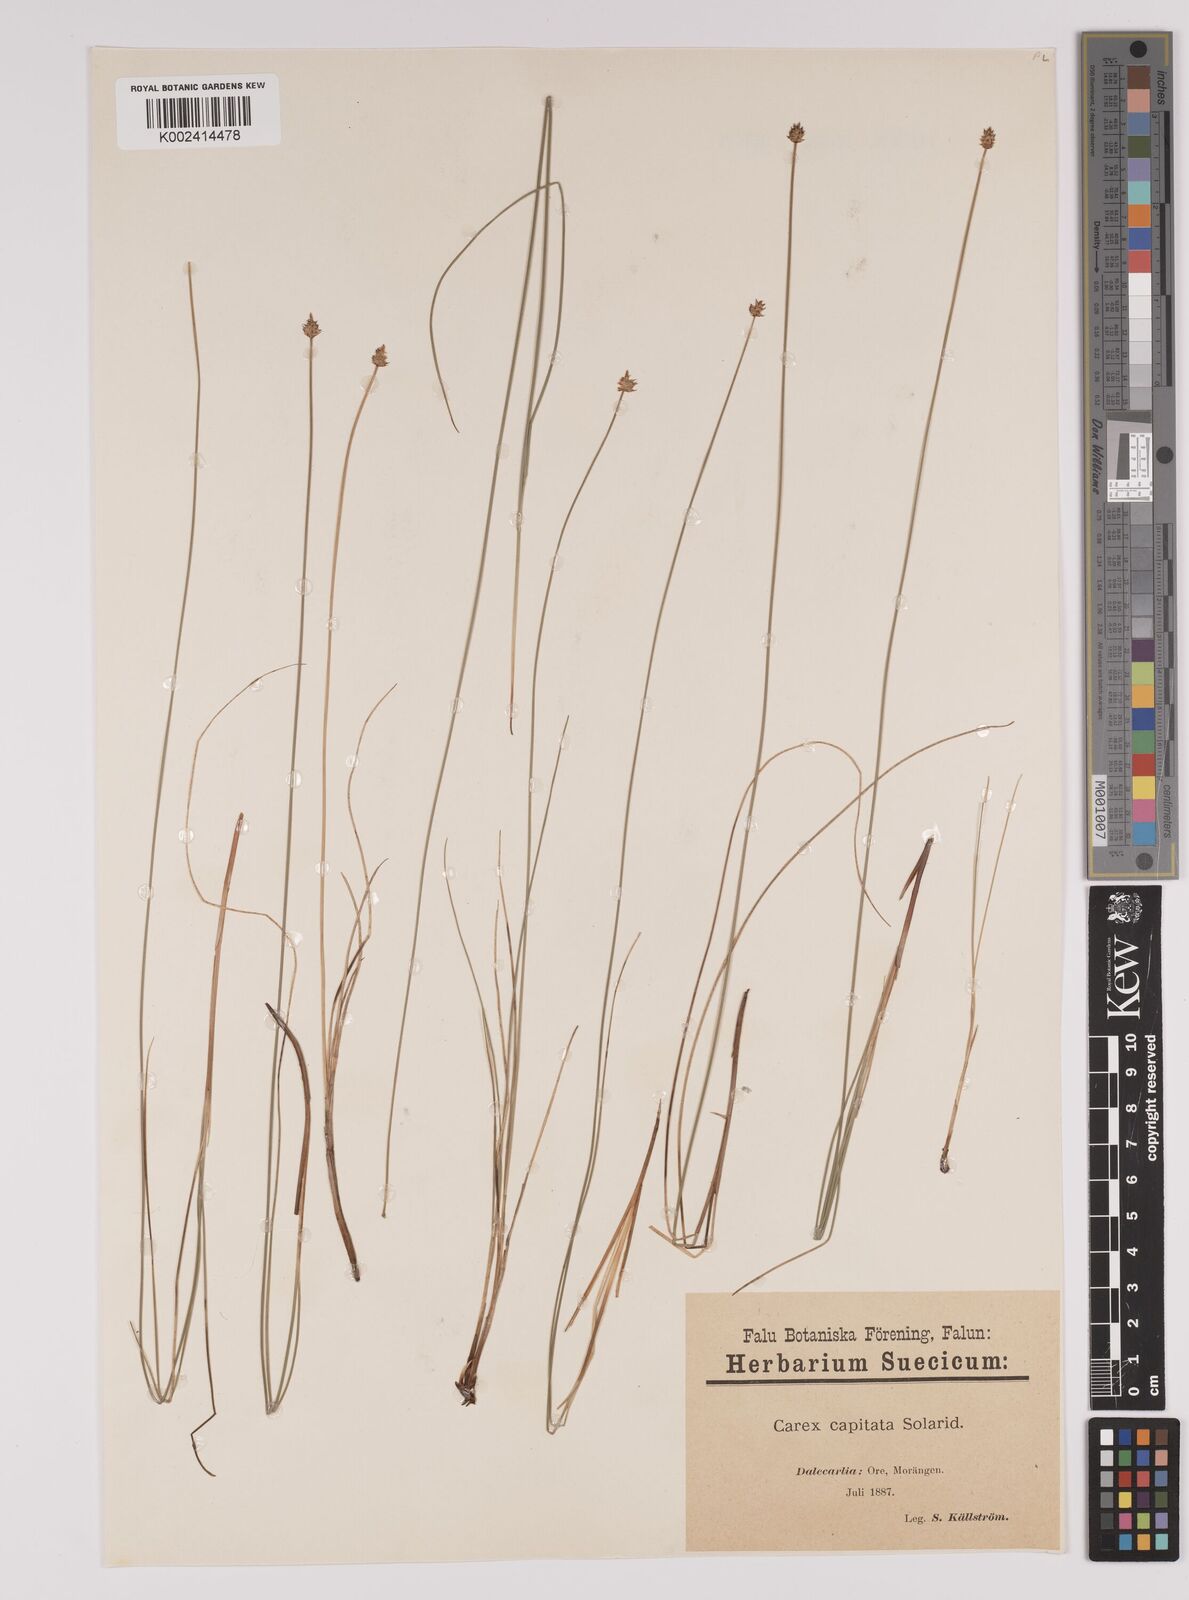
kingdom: Plantae
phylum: Tracheophyta
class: Liliopsida
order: Poales
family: Cyperaceae
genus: Carex
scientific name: Carex capitata
